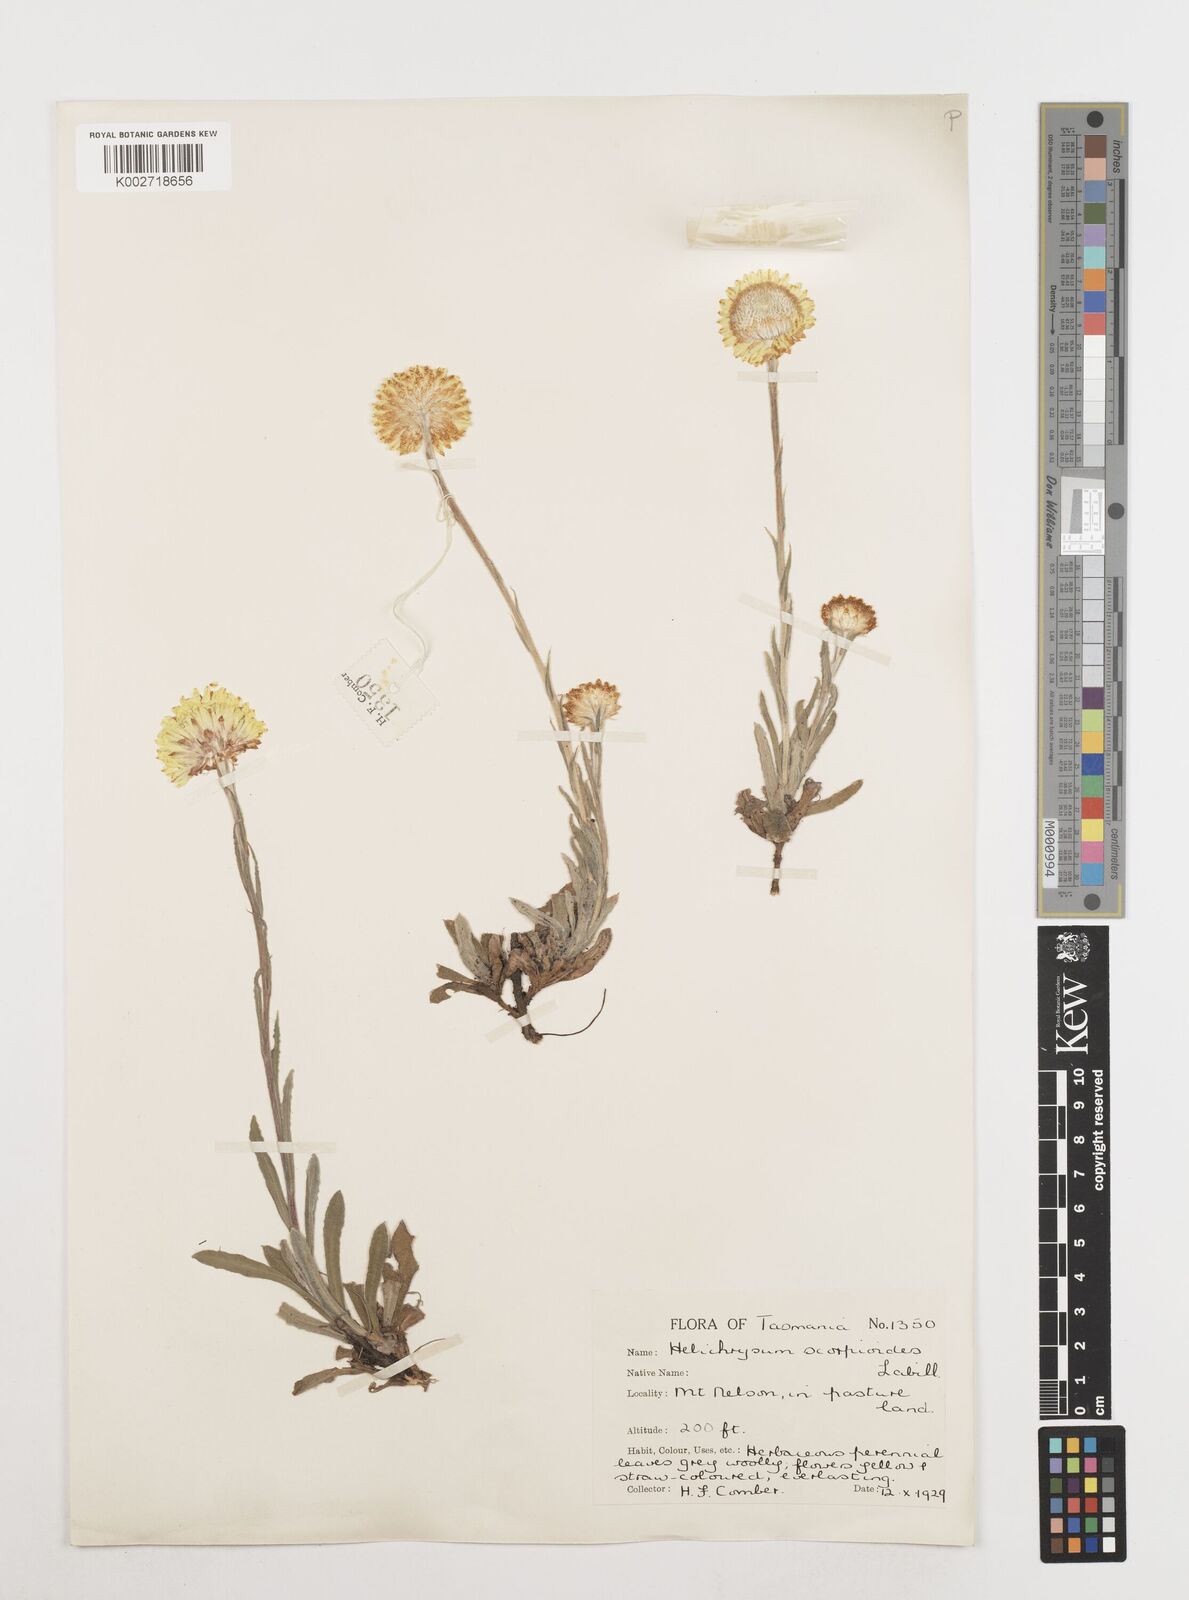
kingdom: Plantae
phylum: Tracheophyta
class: Magnoliopsida
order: Asterales
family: Asteraceae
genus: Coronidium
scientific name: Coronidium scorpioides
